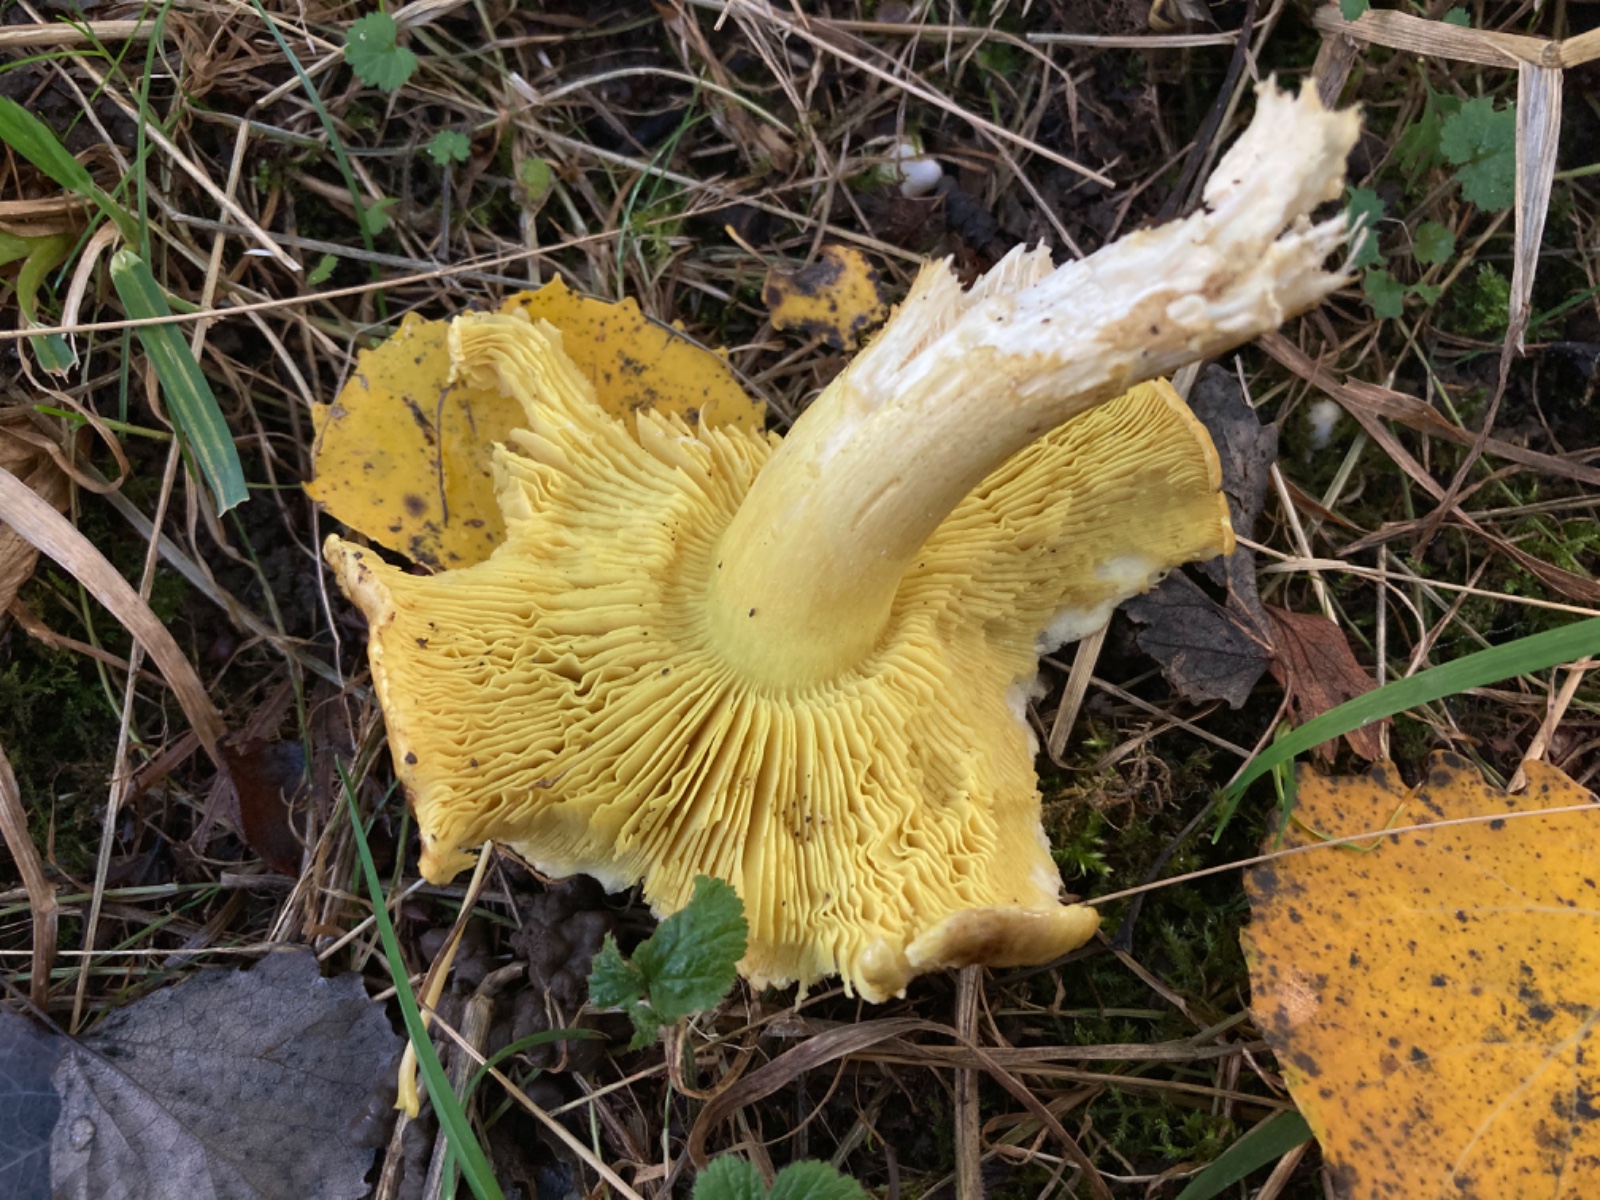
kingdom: Fungi
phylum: Basidiomycota
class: Agaricomycetes
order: Agaricales
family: Tricholomataceae
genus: Tricholoma
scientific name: Tricholoma frondosae
